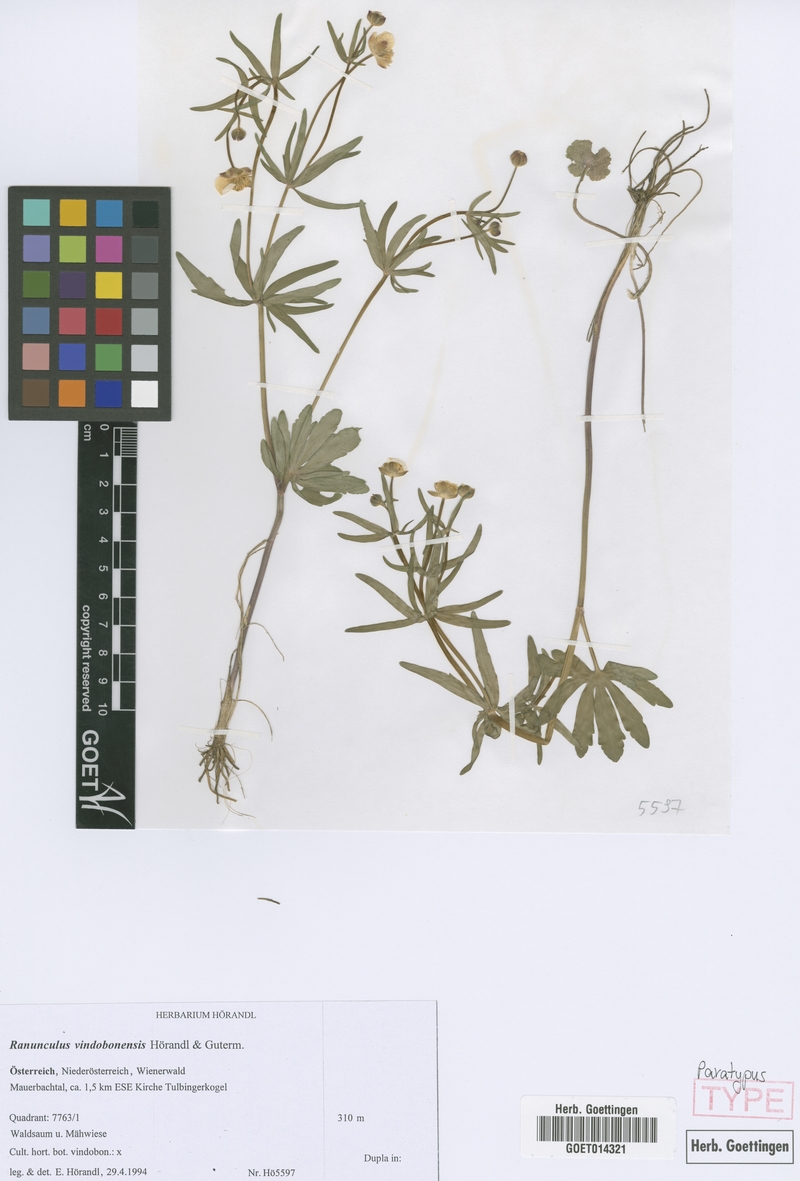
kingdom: Plantae
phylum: Tracheophyta
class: Magnoliopsida
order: Ranunculales
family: Ranunculaceae
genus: Ranunculus
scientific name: Ranunculus vindobonensis
